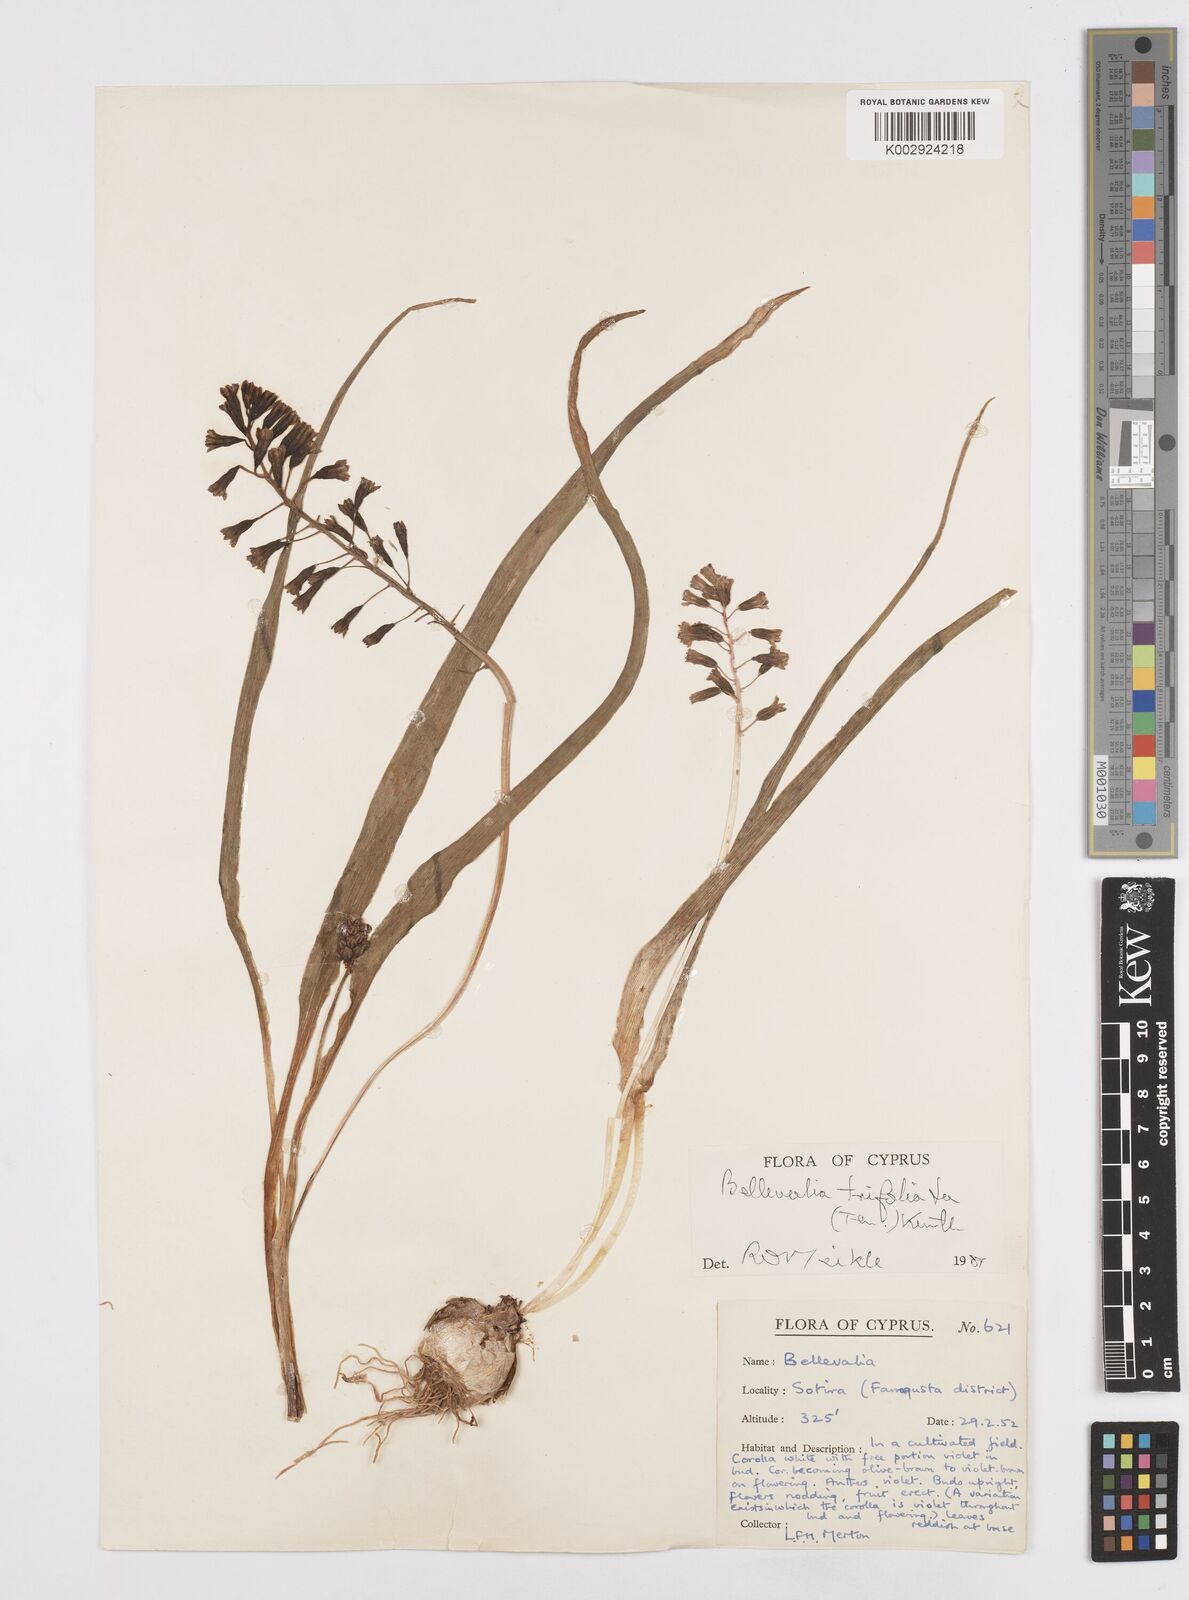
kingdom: Plantae
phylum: Tracheophyta
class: Liliopsida
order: Asparagales
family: Asparagaceae
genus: Bellevalia
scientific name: Bellevalia trifoliata
